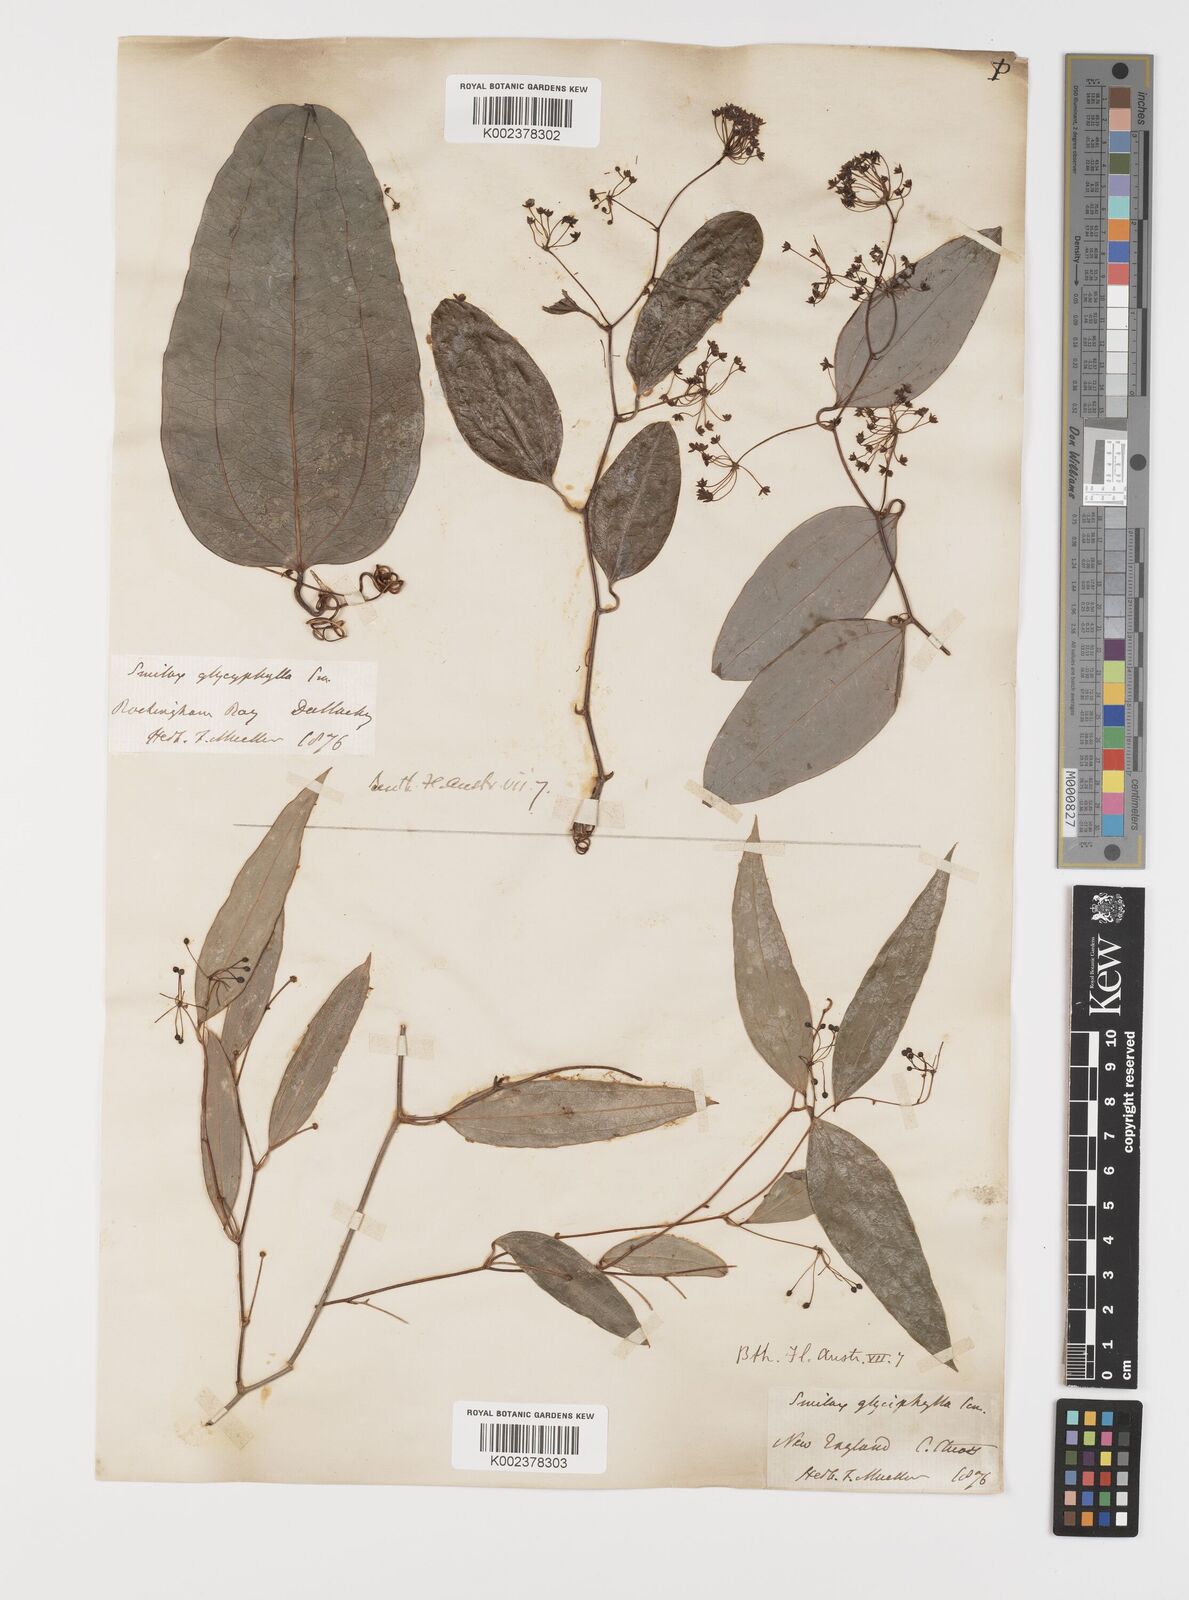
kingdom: Plantae
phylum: Tracheophyta
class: Liliopsida
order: Liliales
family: Smilacaceae
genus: Smilax
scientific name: Smilax glyciphylla
